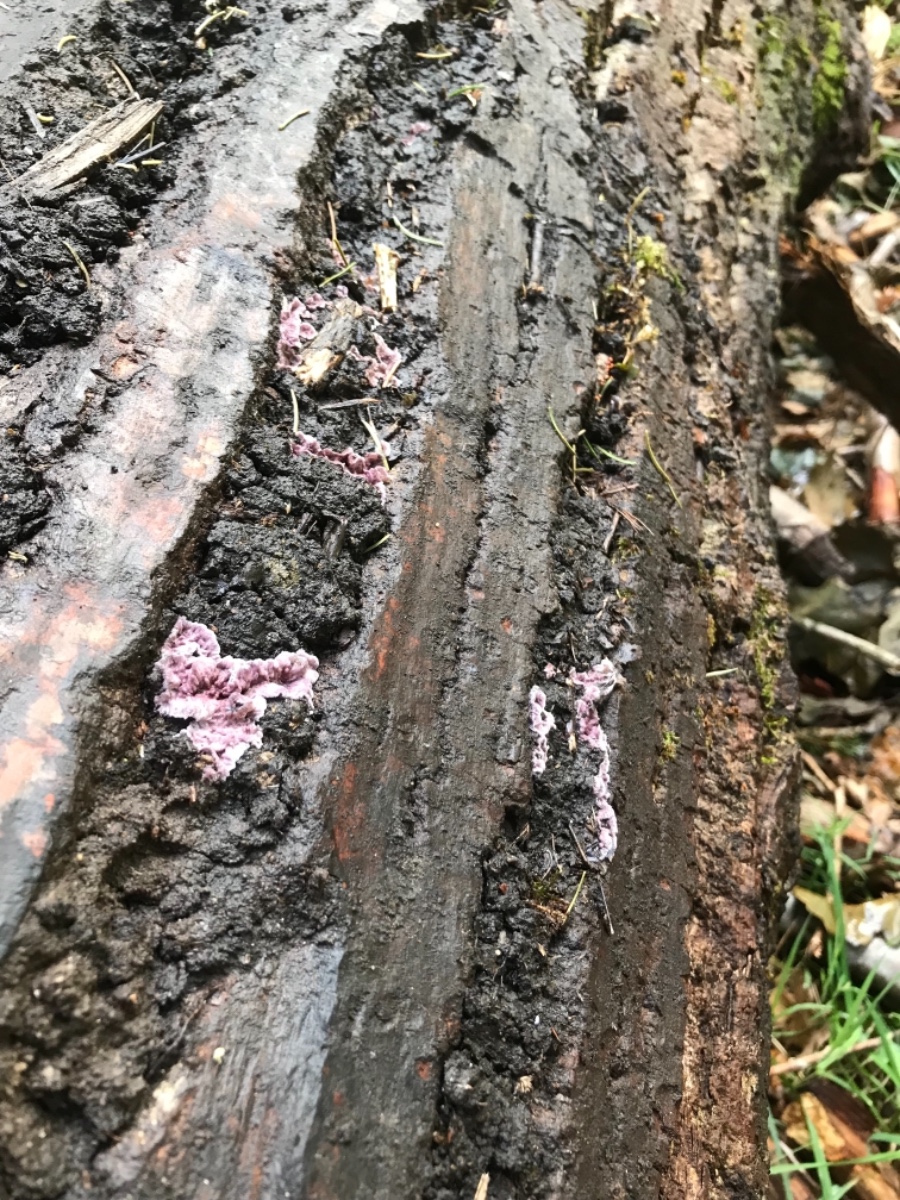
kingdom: Fungi
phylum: Basidiomycota
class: Agaricomycetes
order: Agaricales
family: Cyphellaceae
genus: Chondrostereum
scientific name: Chondrostereum purpureum
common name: purpurlædersvamp
